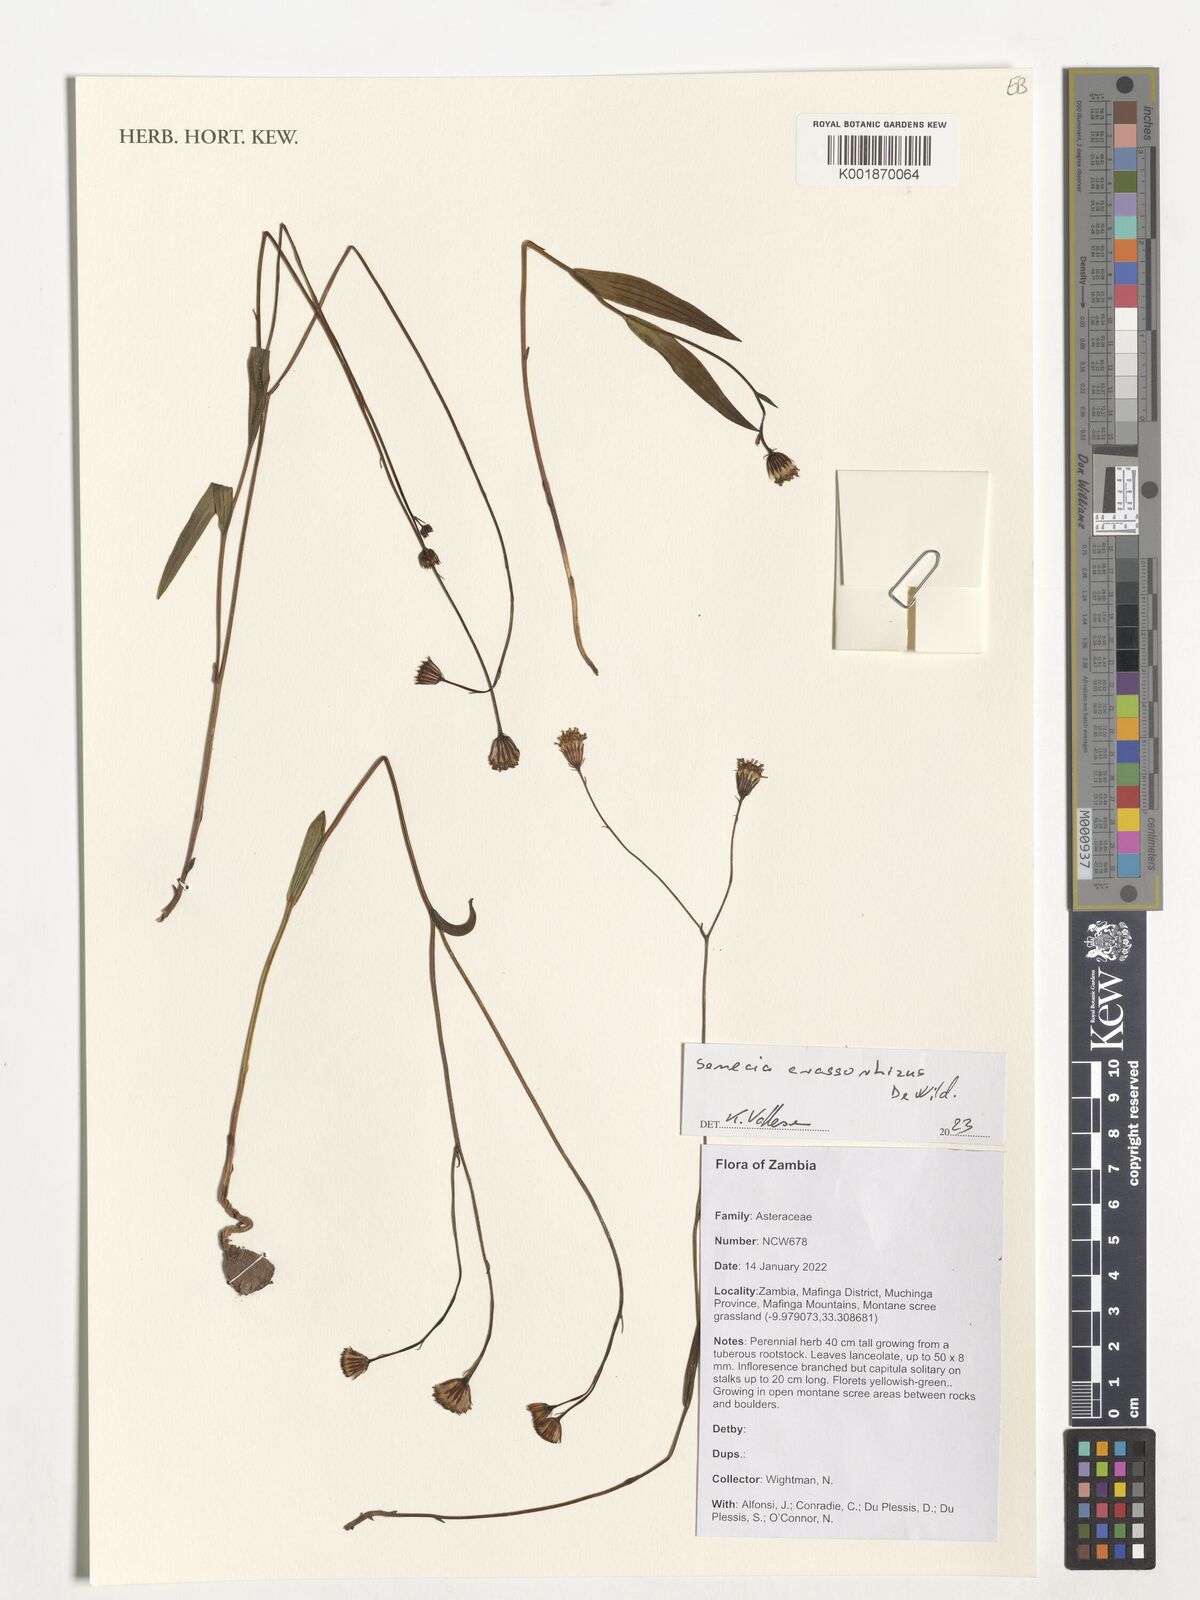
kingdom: Plantae
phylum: Tracheophyta
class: Magnoliopsida
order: Asterales
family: Asteraceae
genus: Senecio
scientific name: Senecio crassorhizus
